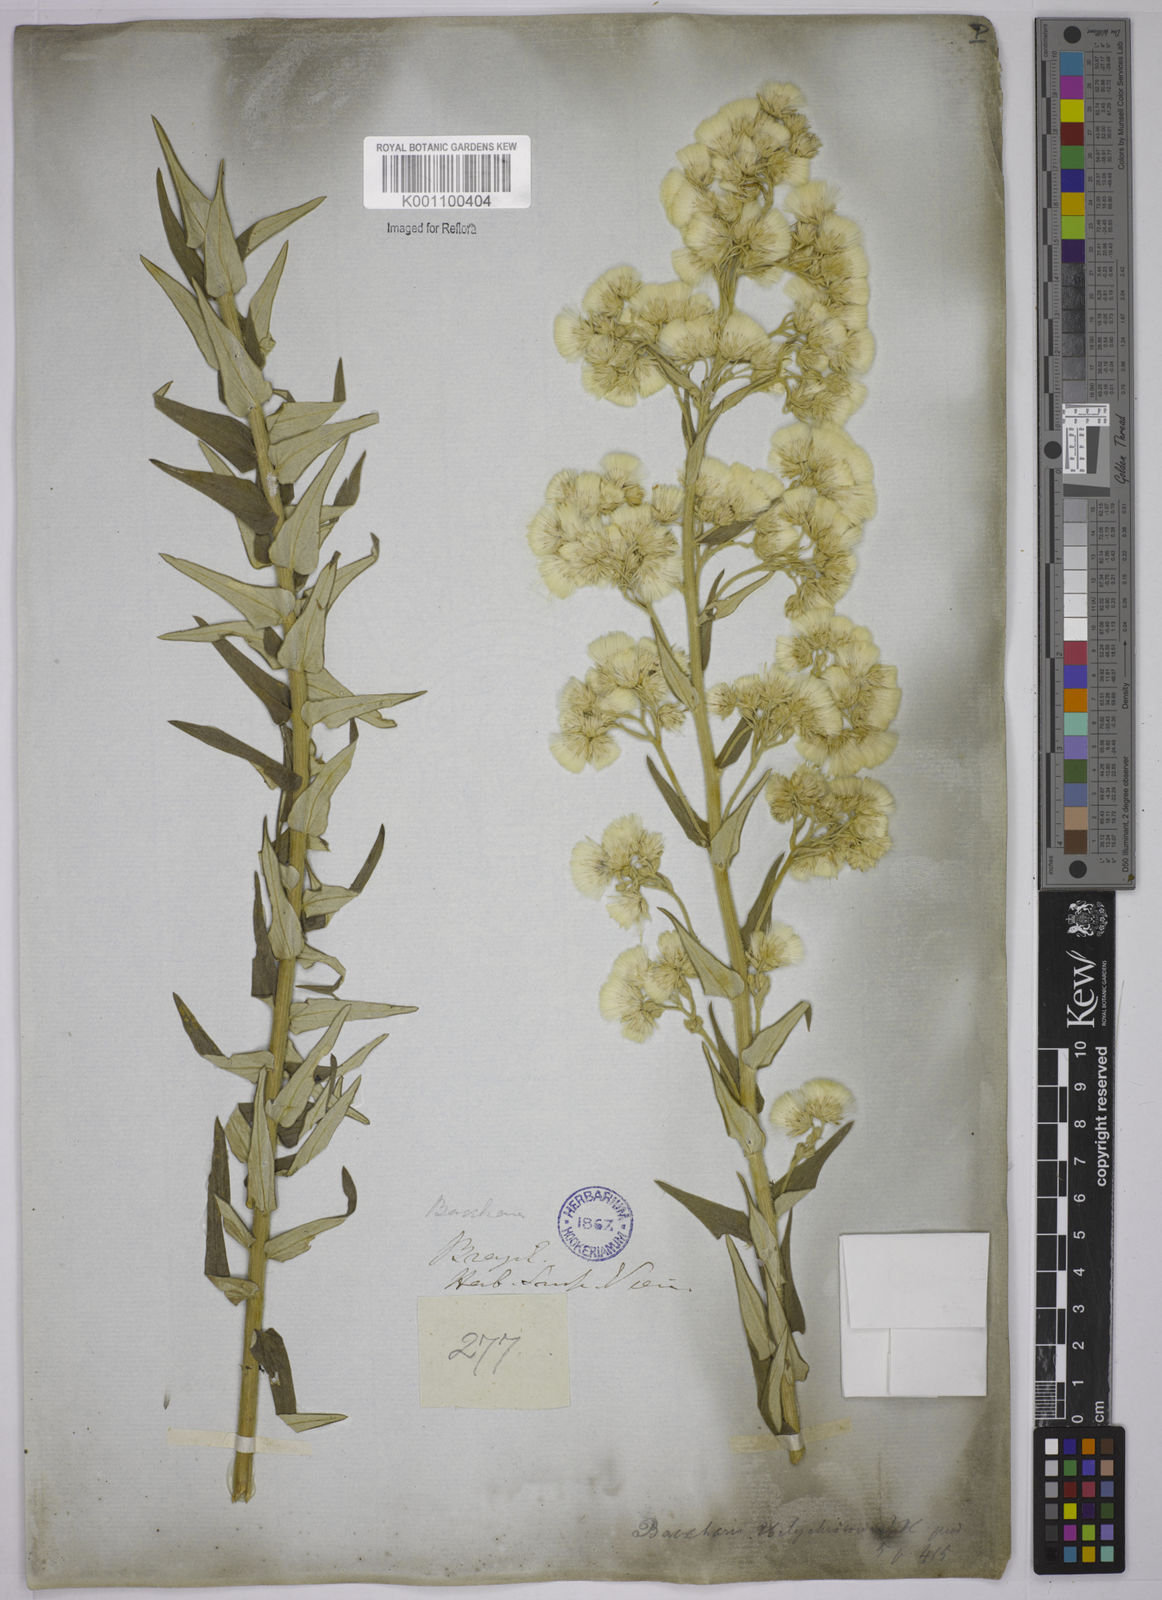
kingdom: Plantae
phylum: Tracheophyta
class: Magnoliopsida
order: Asterales
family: Asteraceae
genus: Baccharis
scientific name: Baccharis helichrysoides
